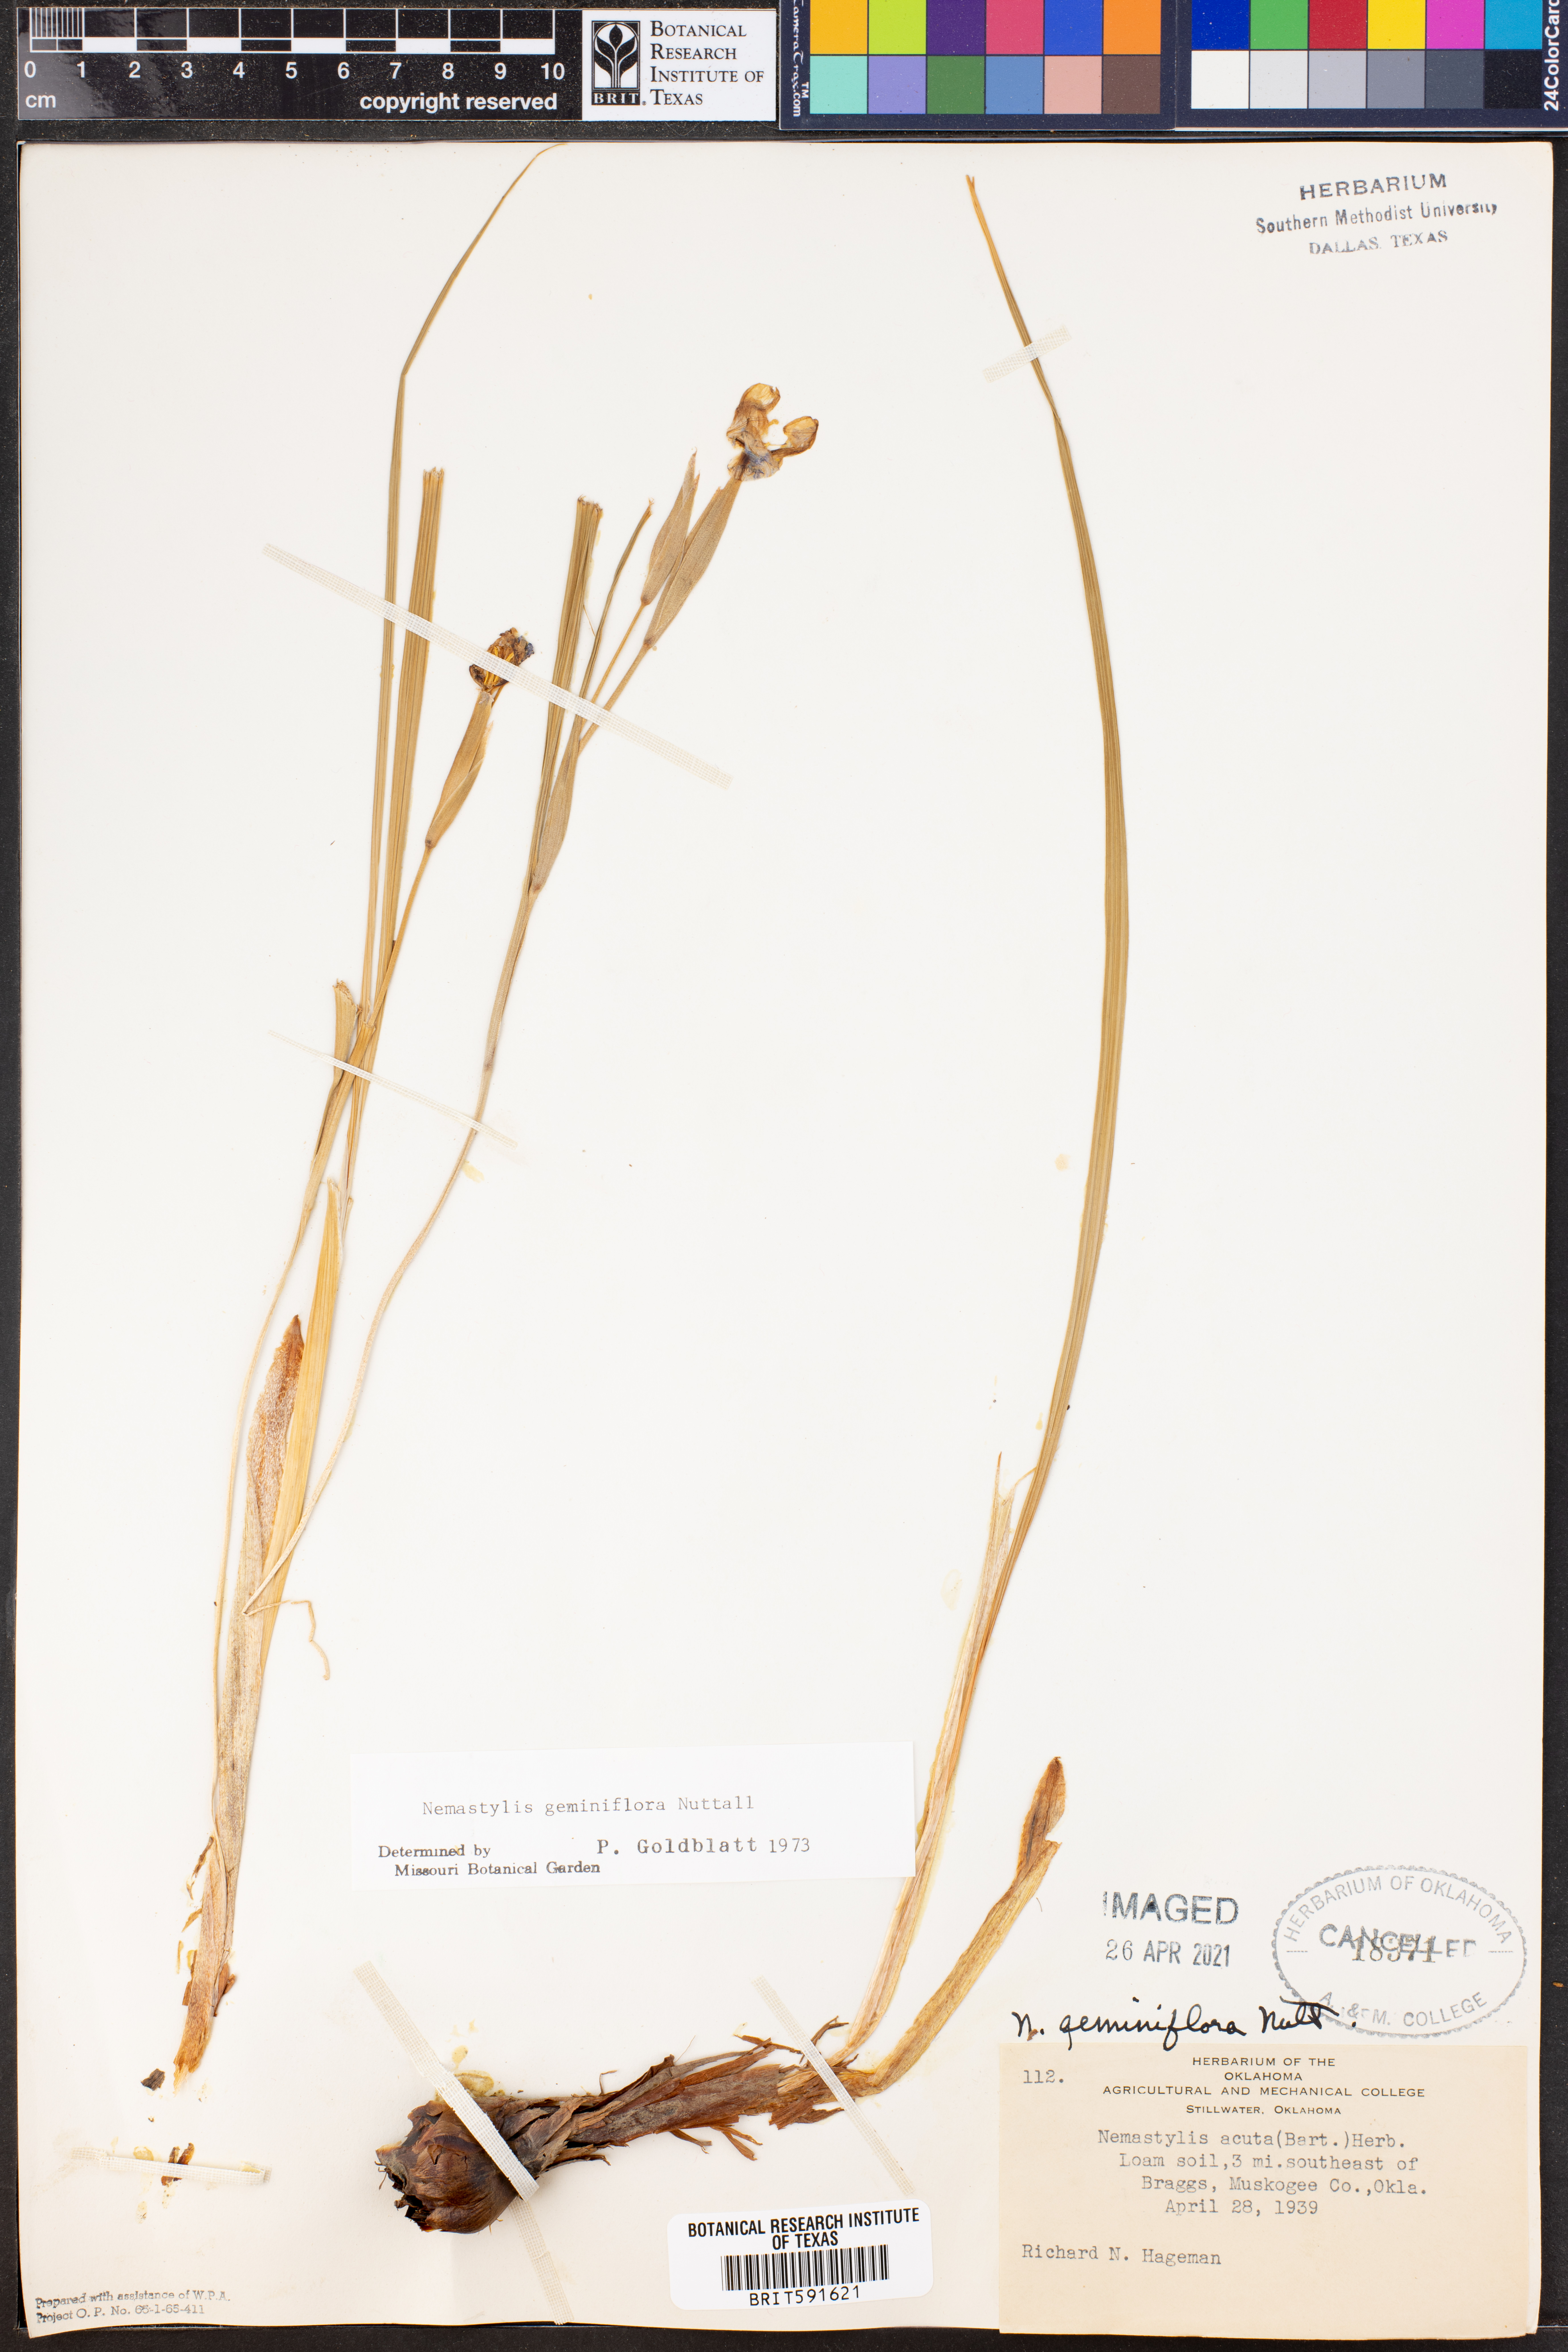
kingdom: Plantae
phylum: Tracheophyta
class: Liliopsida
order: Asparagales
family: Iridaceae
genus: Nemastylis
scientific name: Nemastylis geminiflora
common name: Prairie celestial
